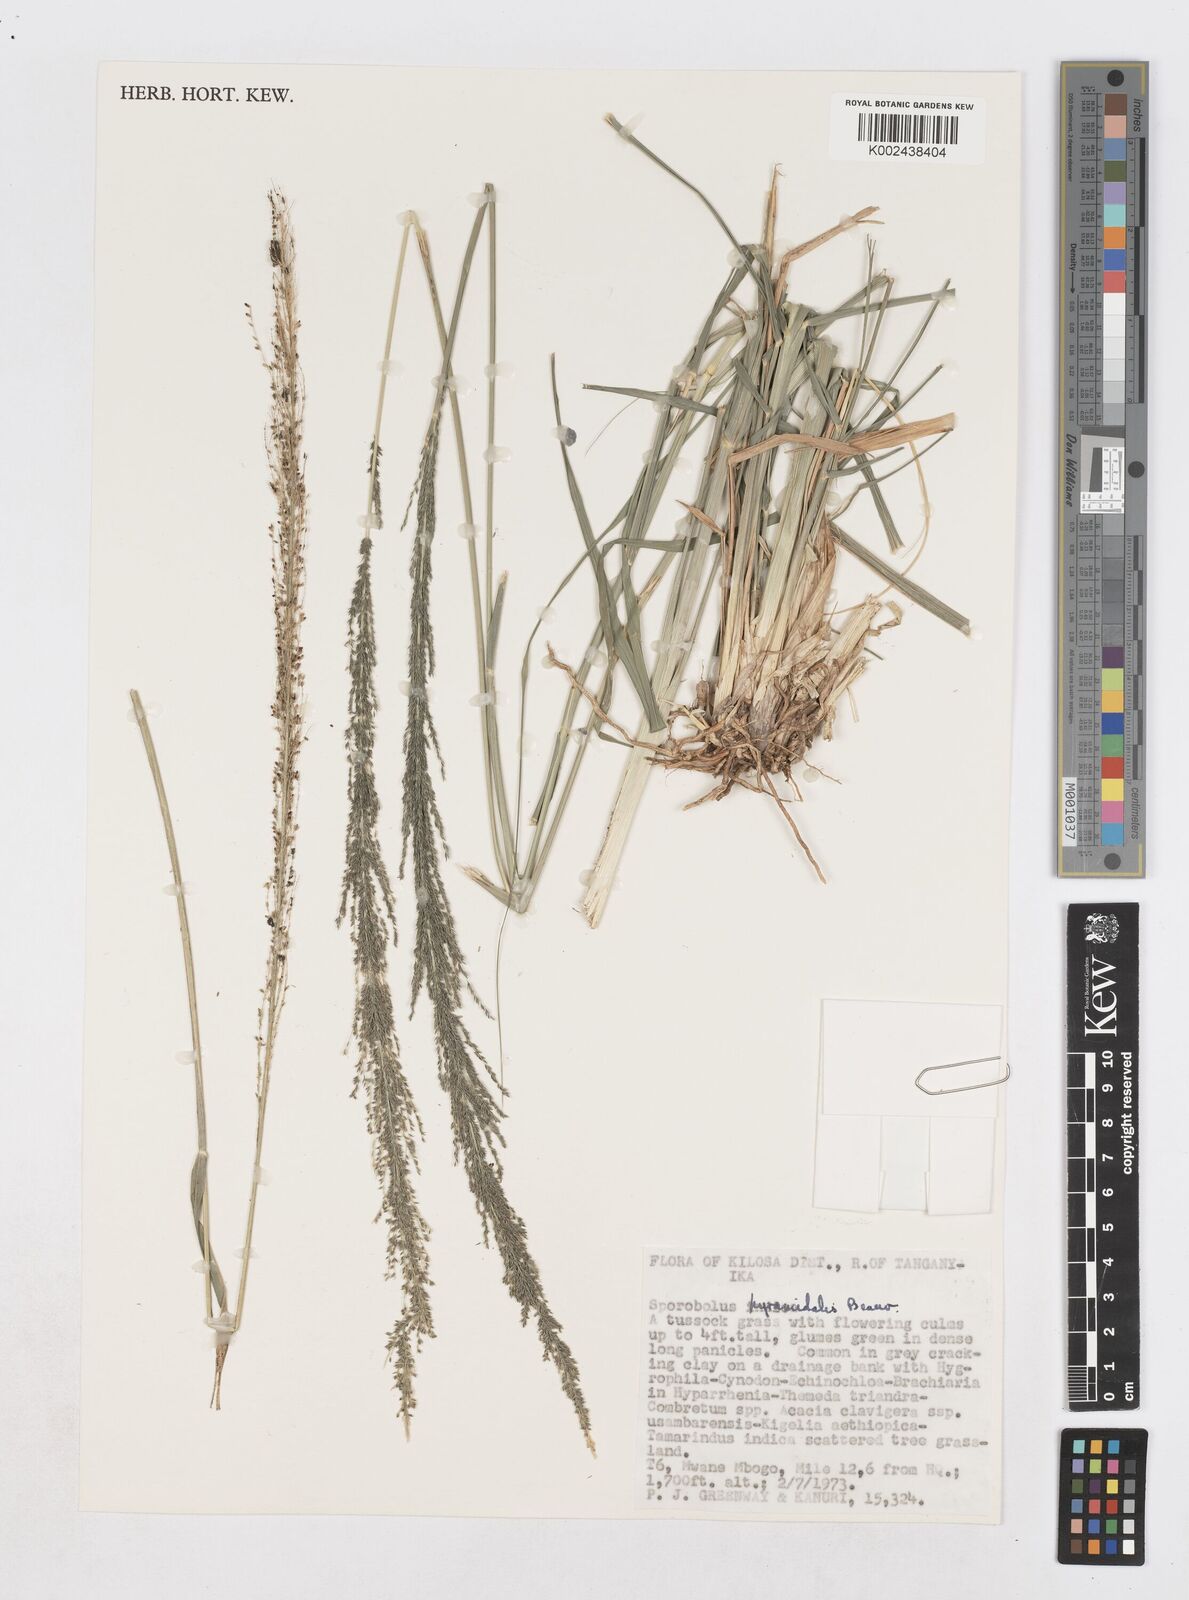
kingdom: Plantae
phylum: Tracheophyta
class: Liliopsida
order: Poales
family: Poaceae
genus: Sporobolus
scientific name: Sporobolus pyramidalis
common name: West indian dropseed
